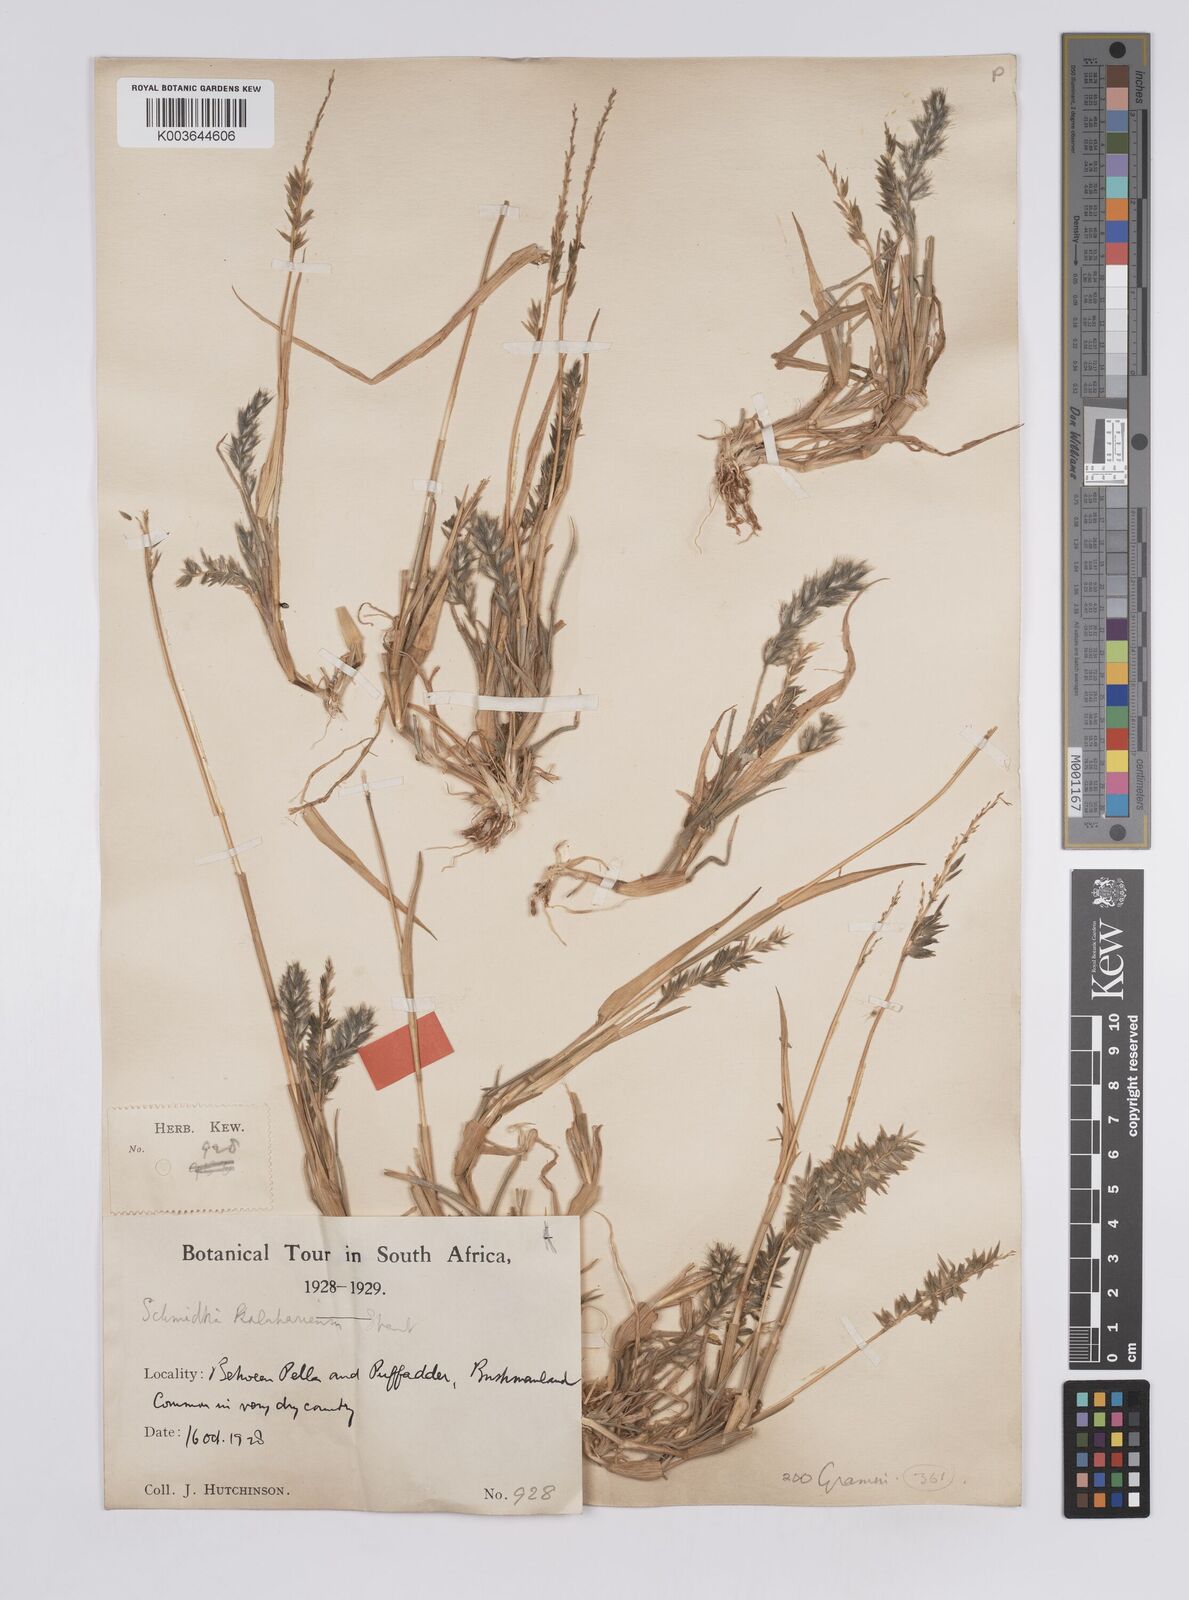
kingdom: Plantae
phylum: Tracheophyta
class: Liliopsida
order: Poales
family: Poaceae
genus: Schmidtia
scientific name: Schmidtia kalahariensis
